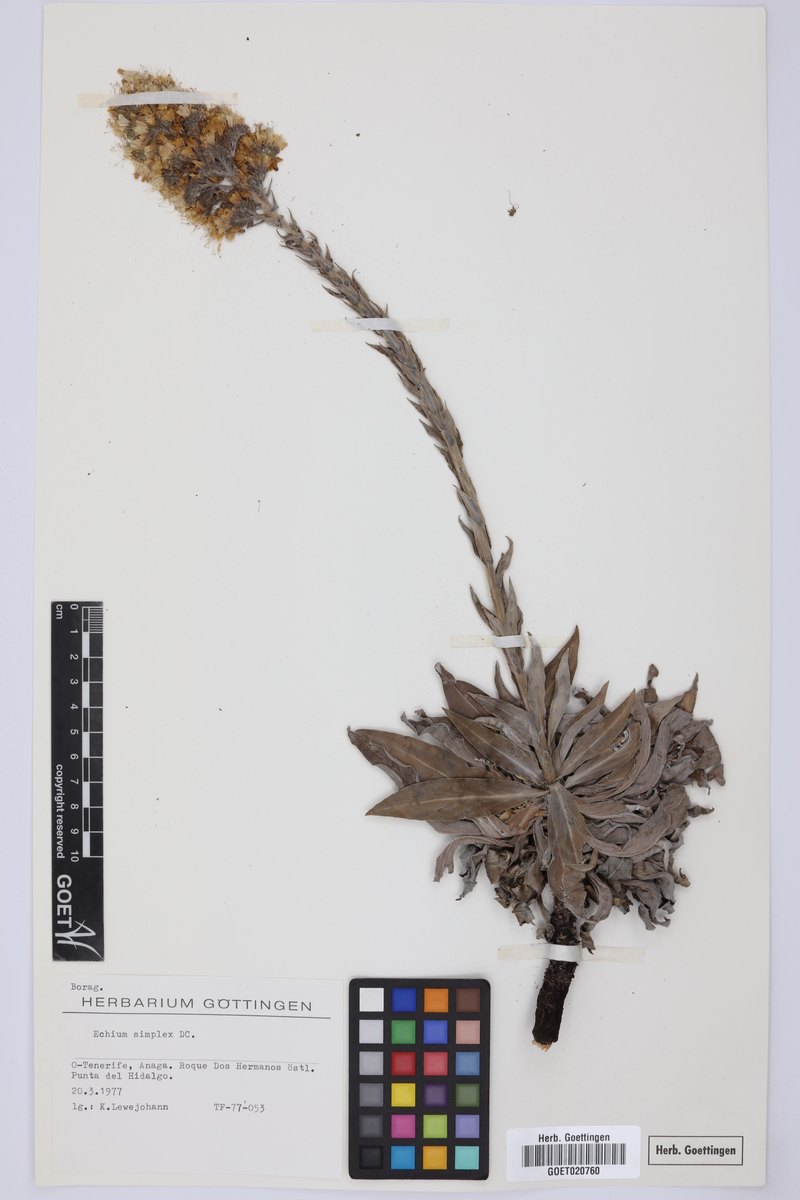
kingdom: Plantae
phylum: Tracheophyta
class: Magnoliopsida
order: Boraginales
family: Boraginaceae
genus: Echium
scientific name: Echium simplex
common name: Pride-of-tenerife
